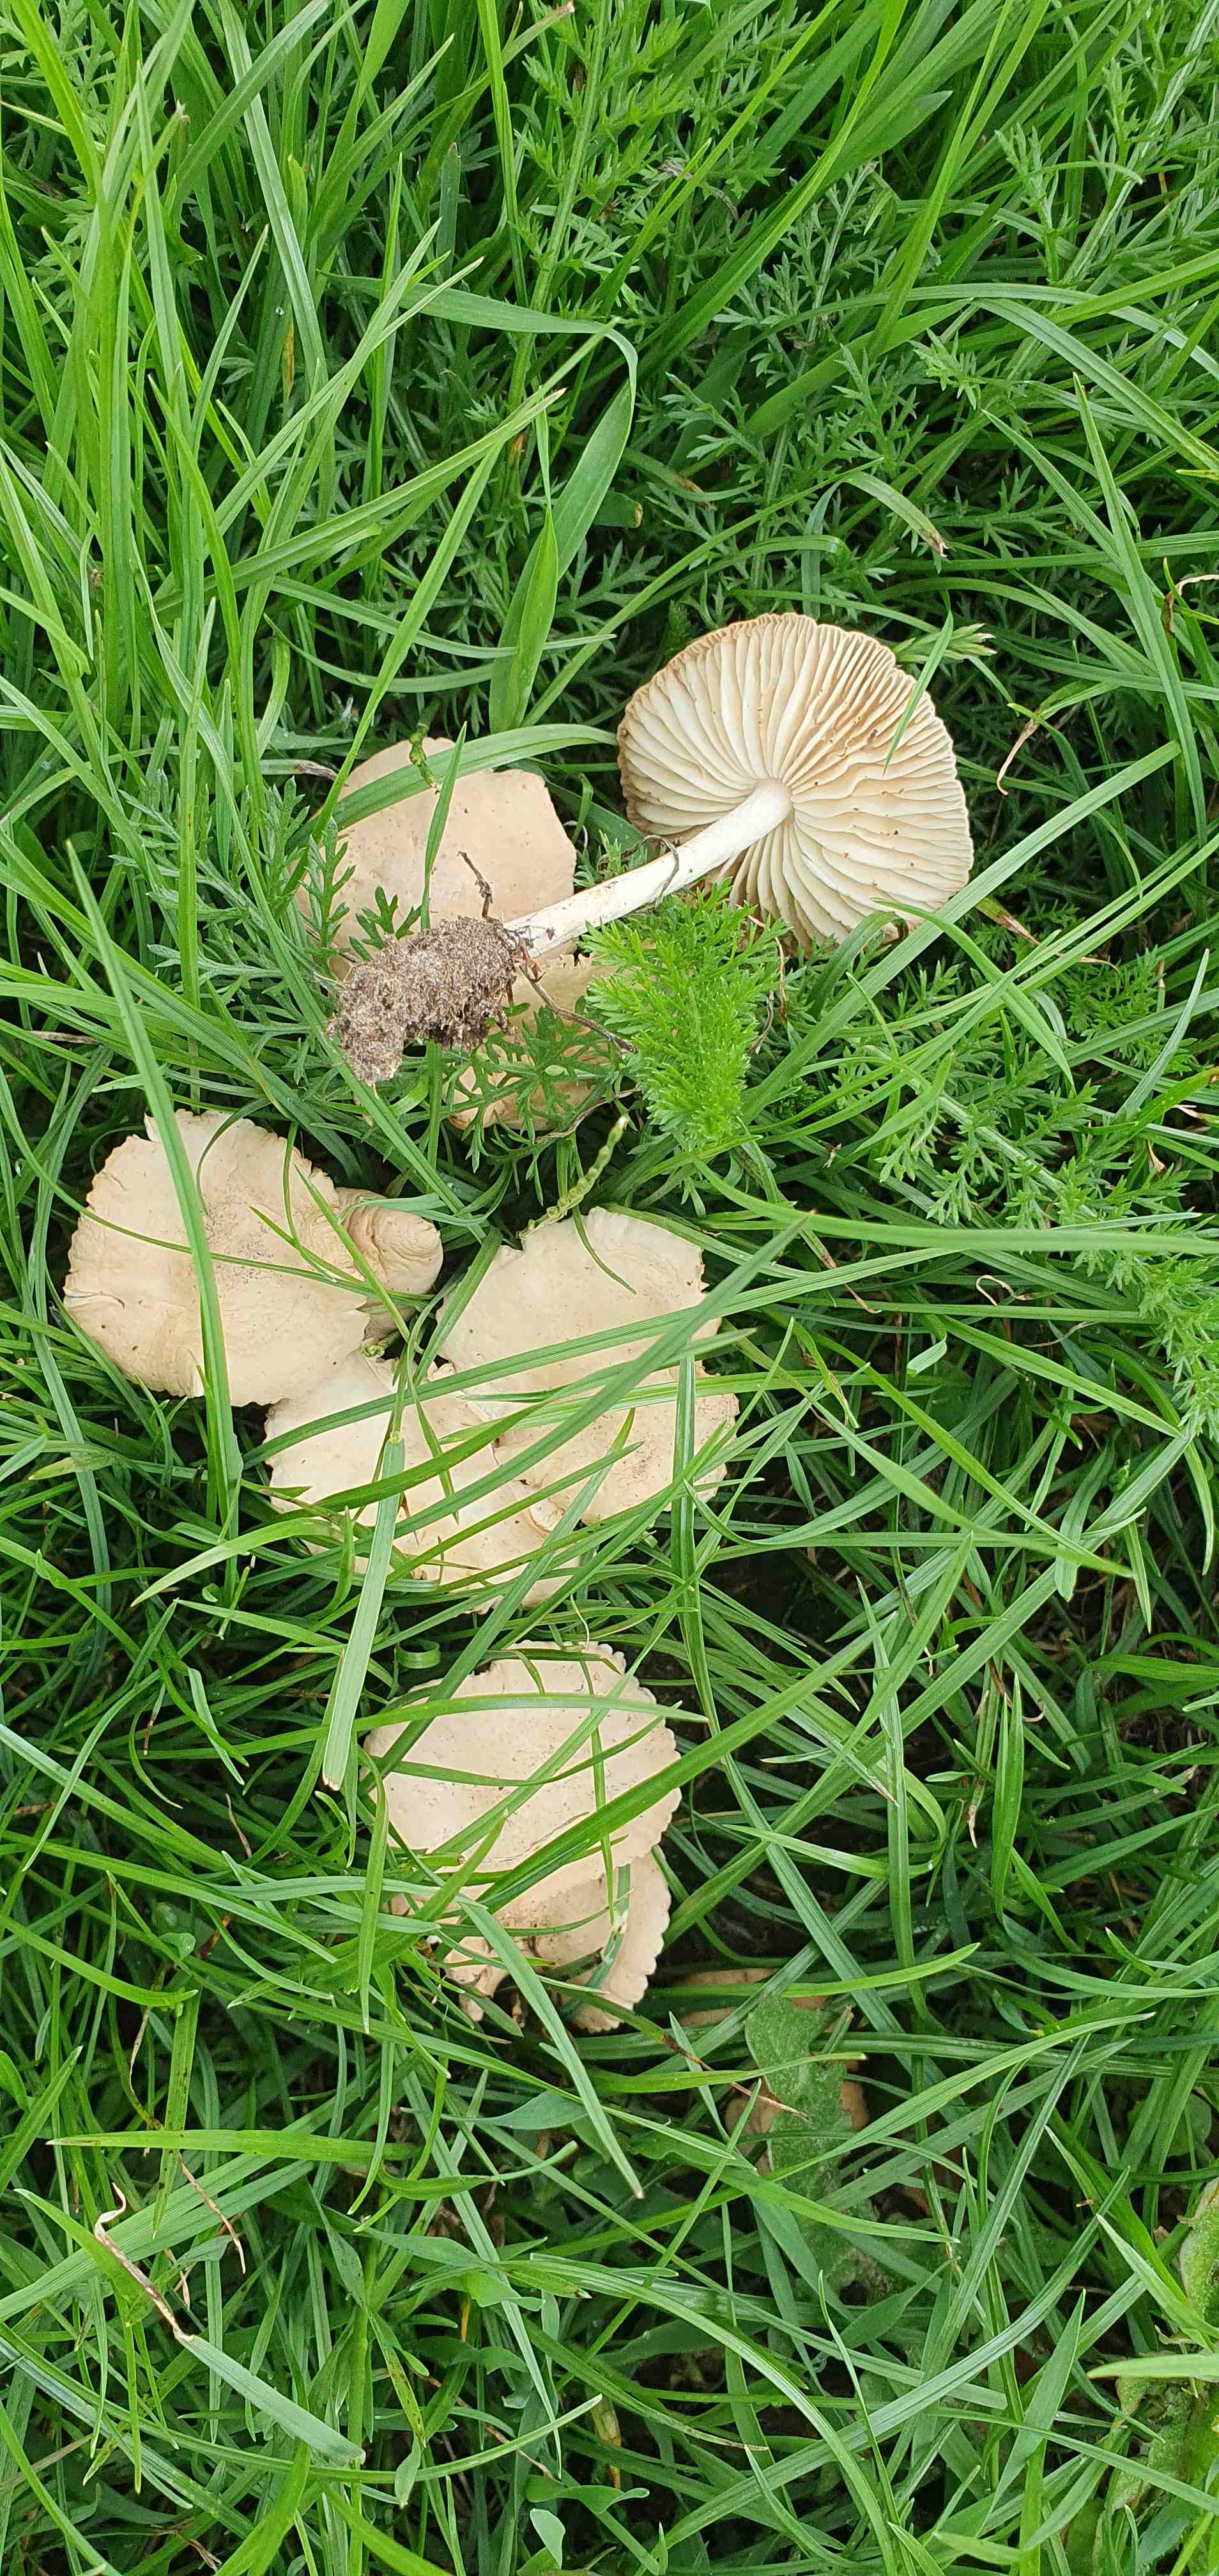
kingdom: Fungi
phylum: Basidiomycota
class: Agaricomycetes
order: Agaricales
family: Marasmiaceae
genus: Marasmius
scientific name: Marasmius oreades
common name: elledans-bruskhat
